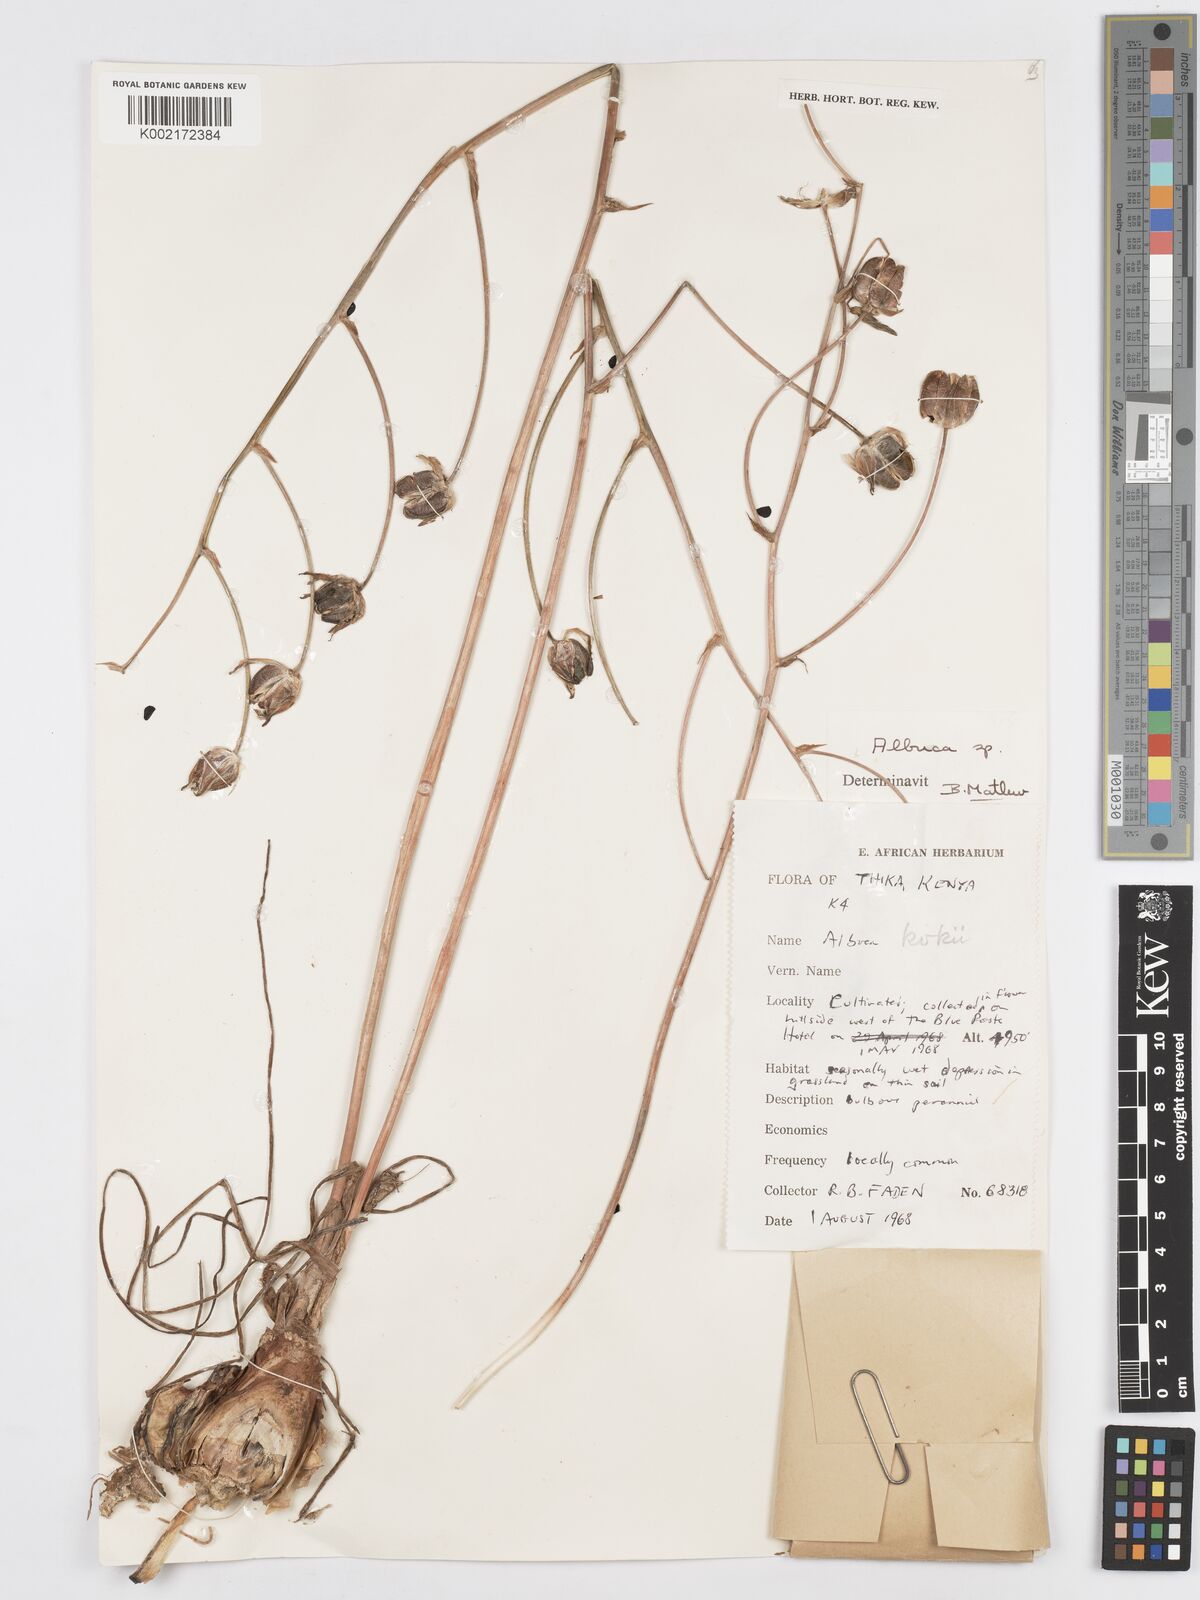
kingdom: Plantae
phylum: Tracheophyta
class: Liliopsida
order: Asparagales
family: Asparagaceae
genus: Albuca
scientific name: Albuca kirkii
